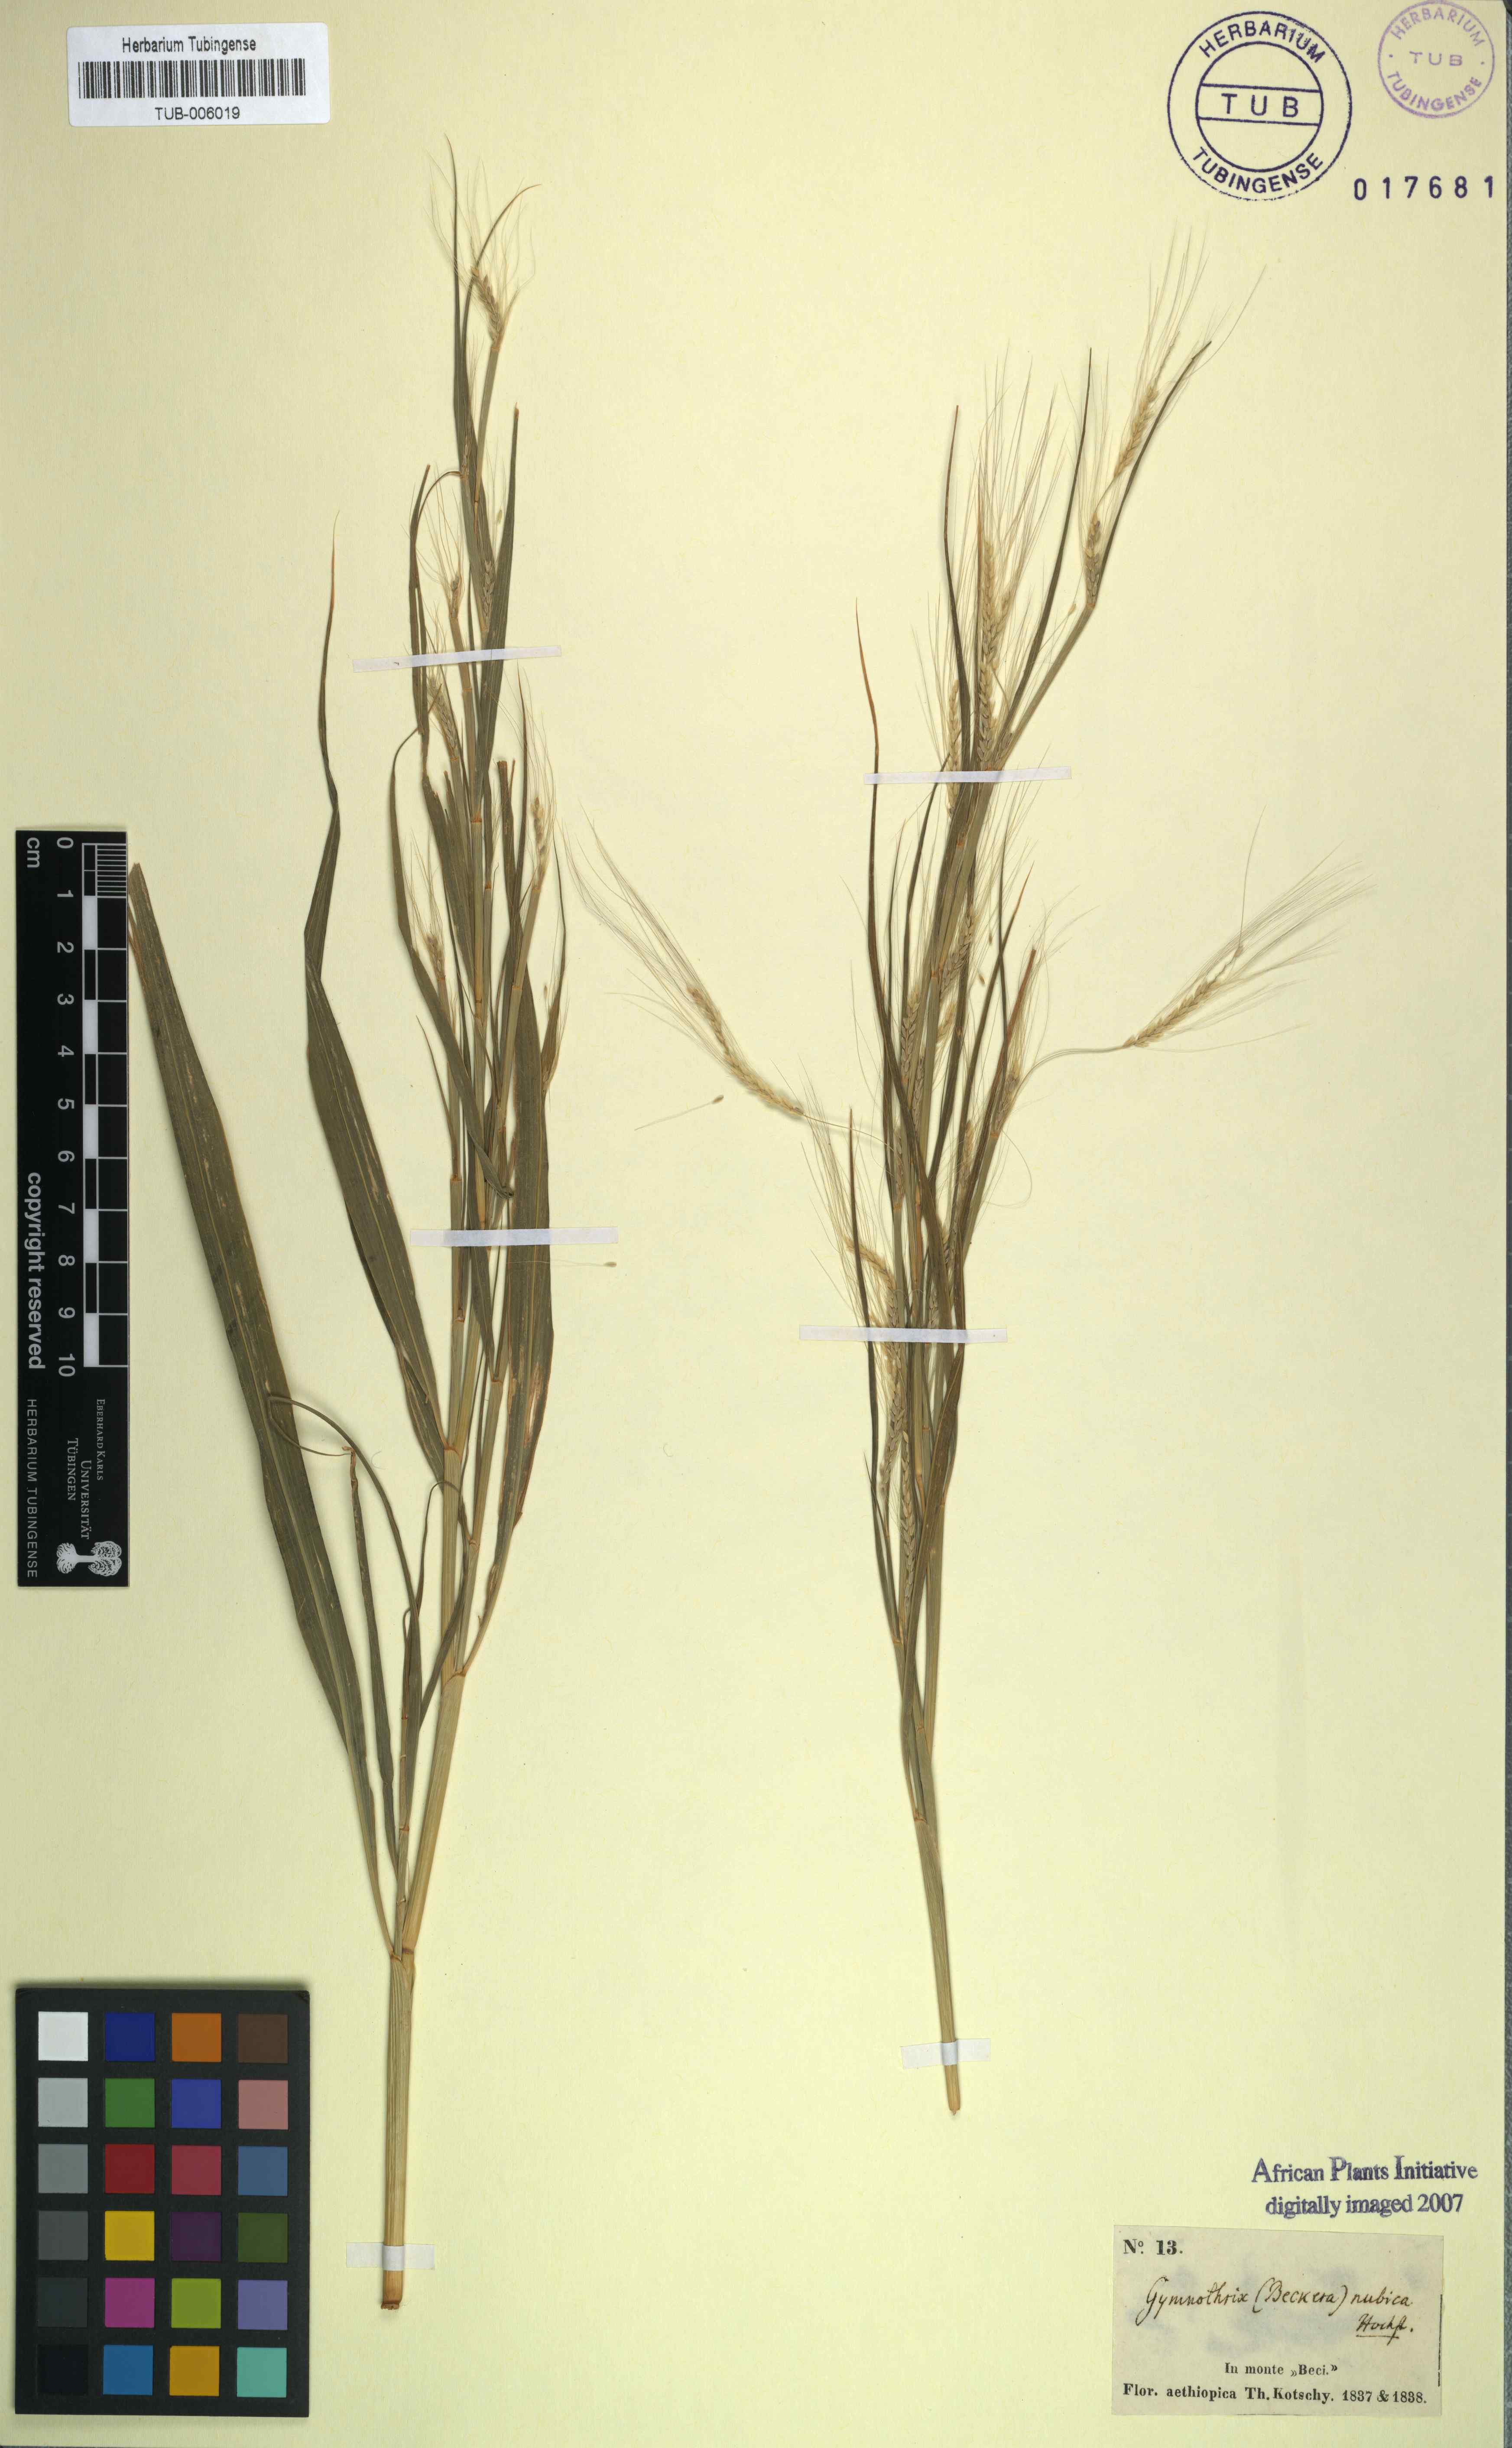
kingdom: Plantae
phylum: Tracheophyta
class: Liliopsida
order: Poales
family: Poaceae
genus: Cenchrus
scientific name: Cenchrus nubicus
